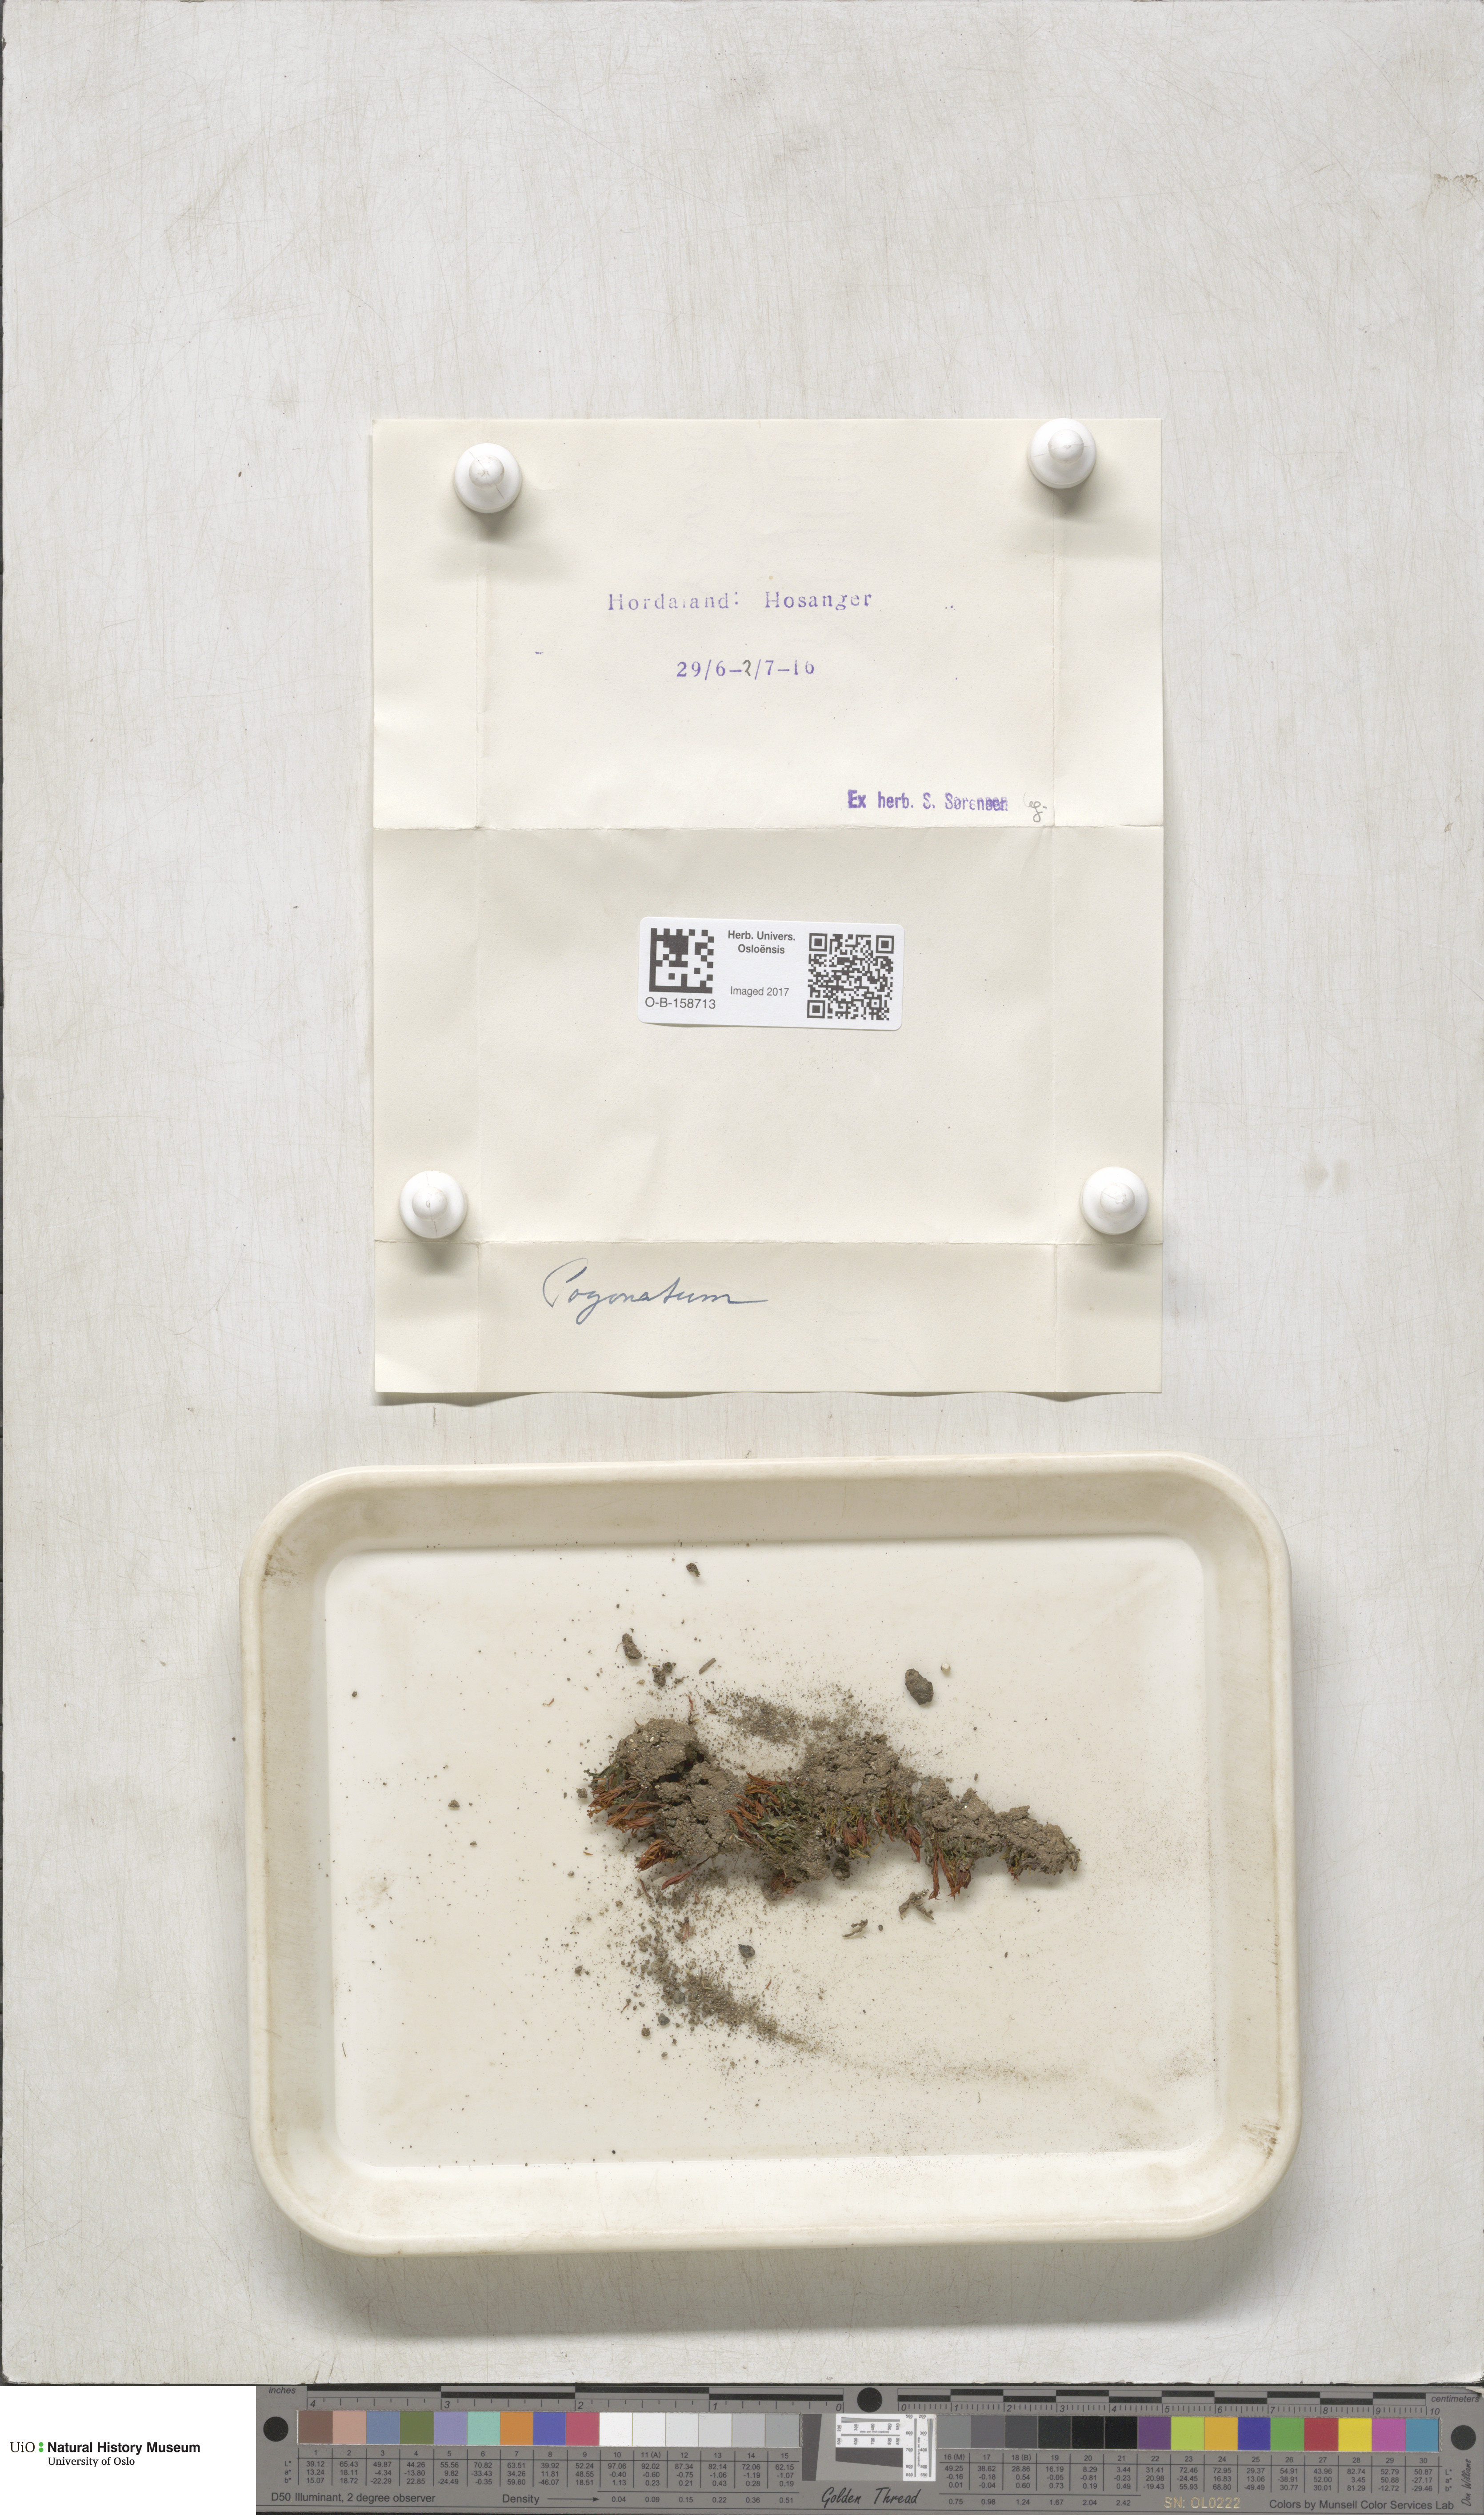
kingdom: Plantae
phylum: Bryophyta
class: Polytrichopsida
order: Polytrichales
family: Polytrichaceae
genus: Pogonatum
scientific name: Pogonatum
